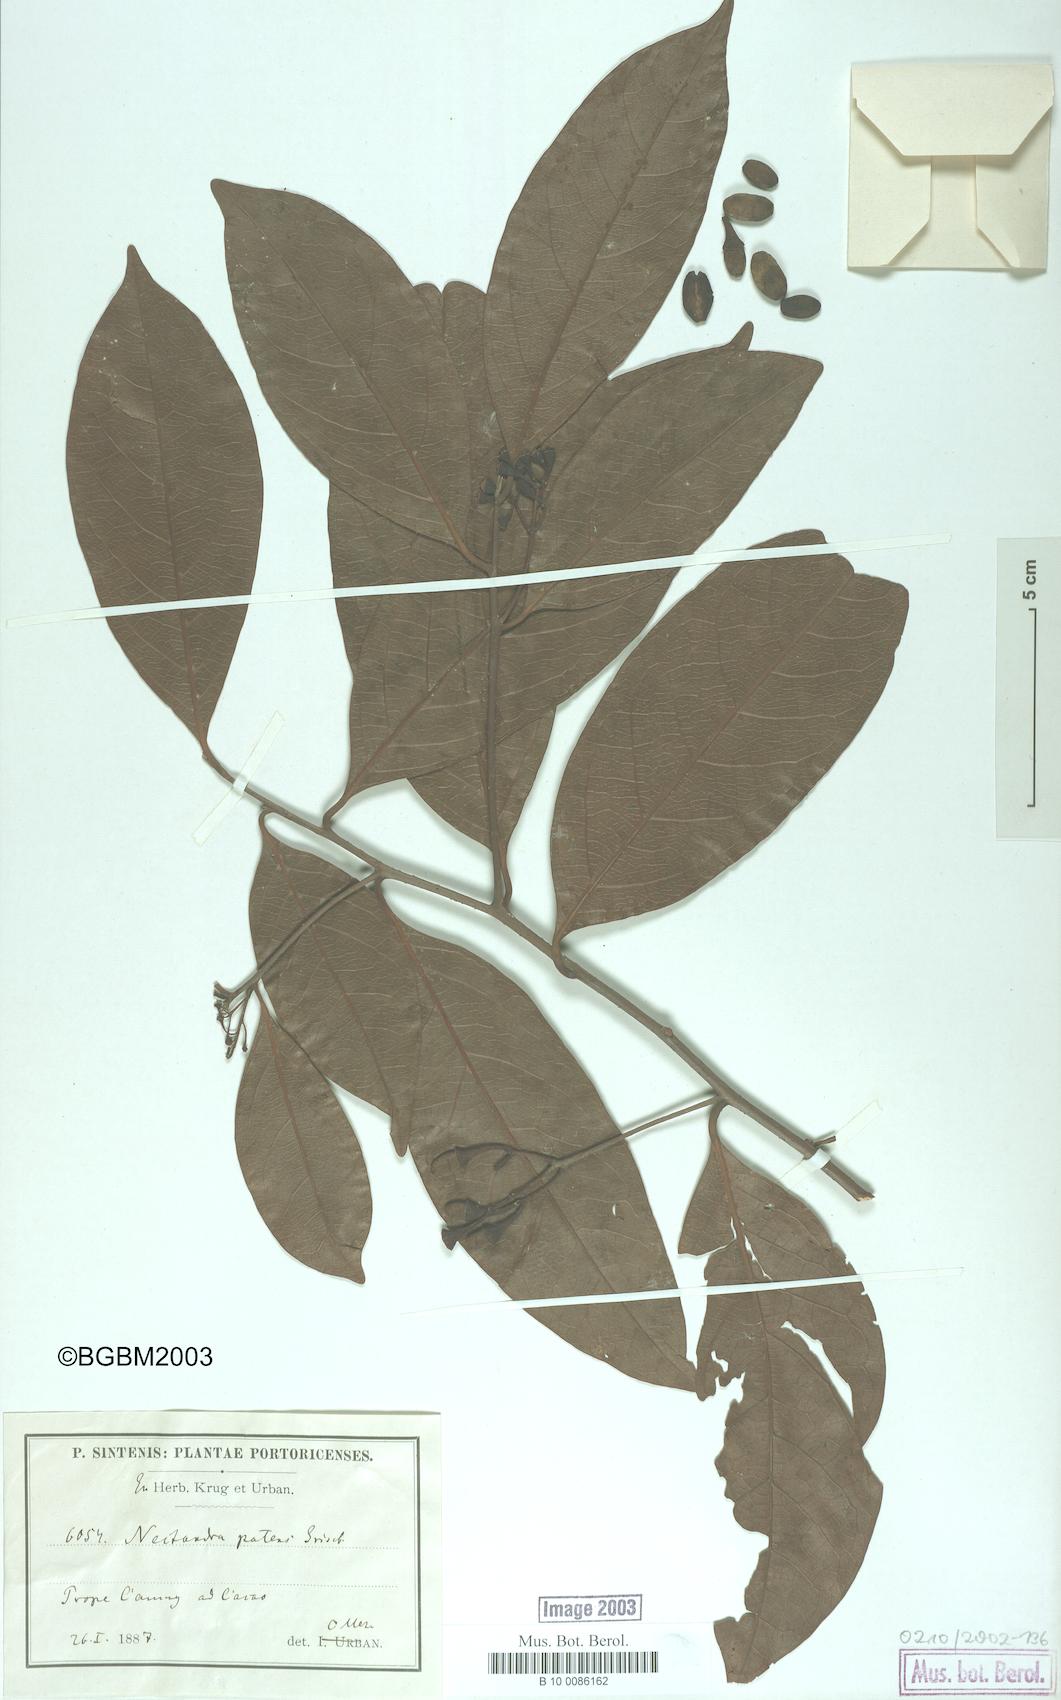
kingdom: Plantae
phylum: Tracheophyta
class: Magnoliopsida
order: Laurales
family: Lauraceae
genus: Damburneya
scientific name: Damburneya patens
